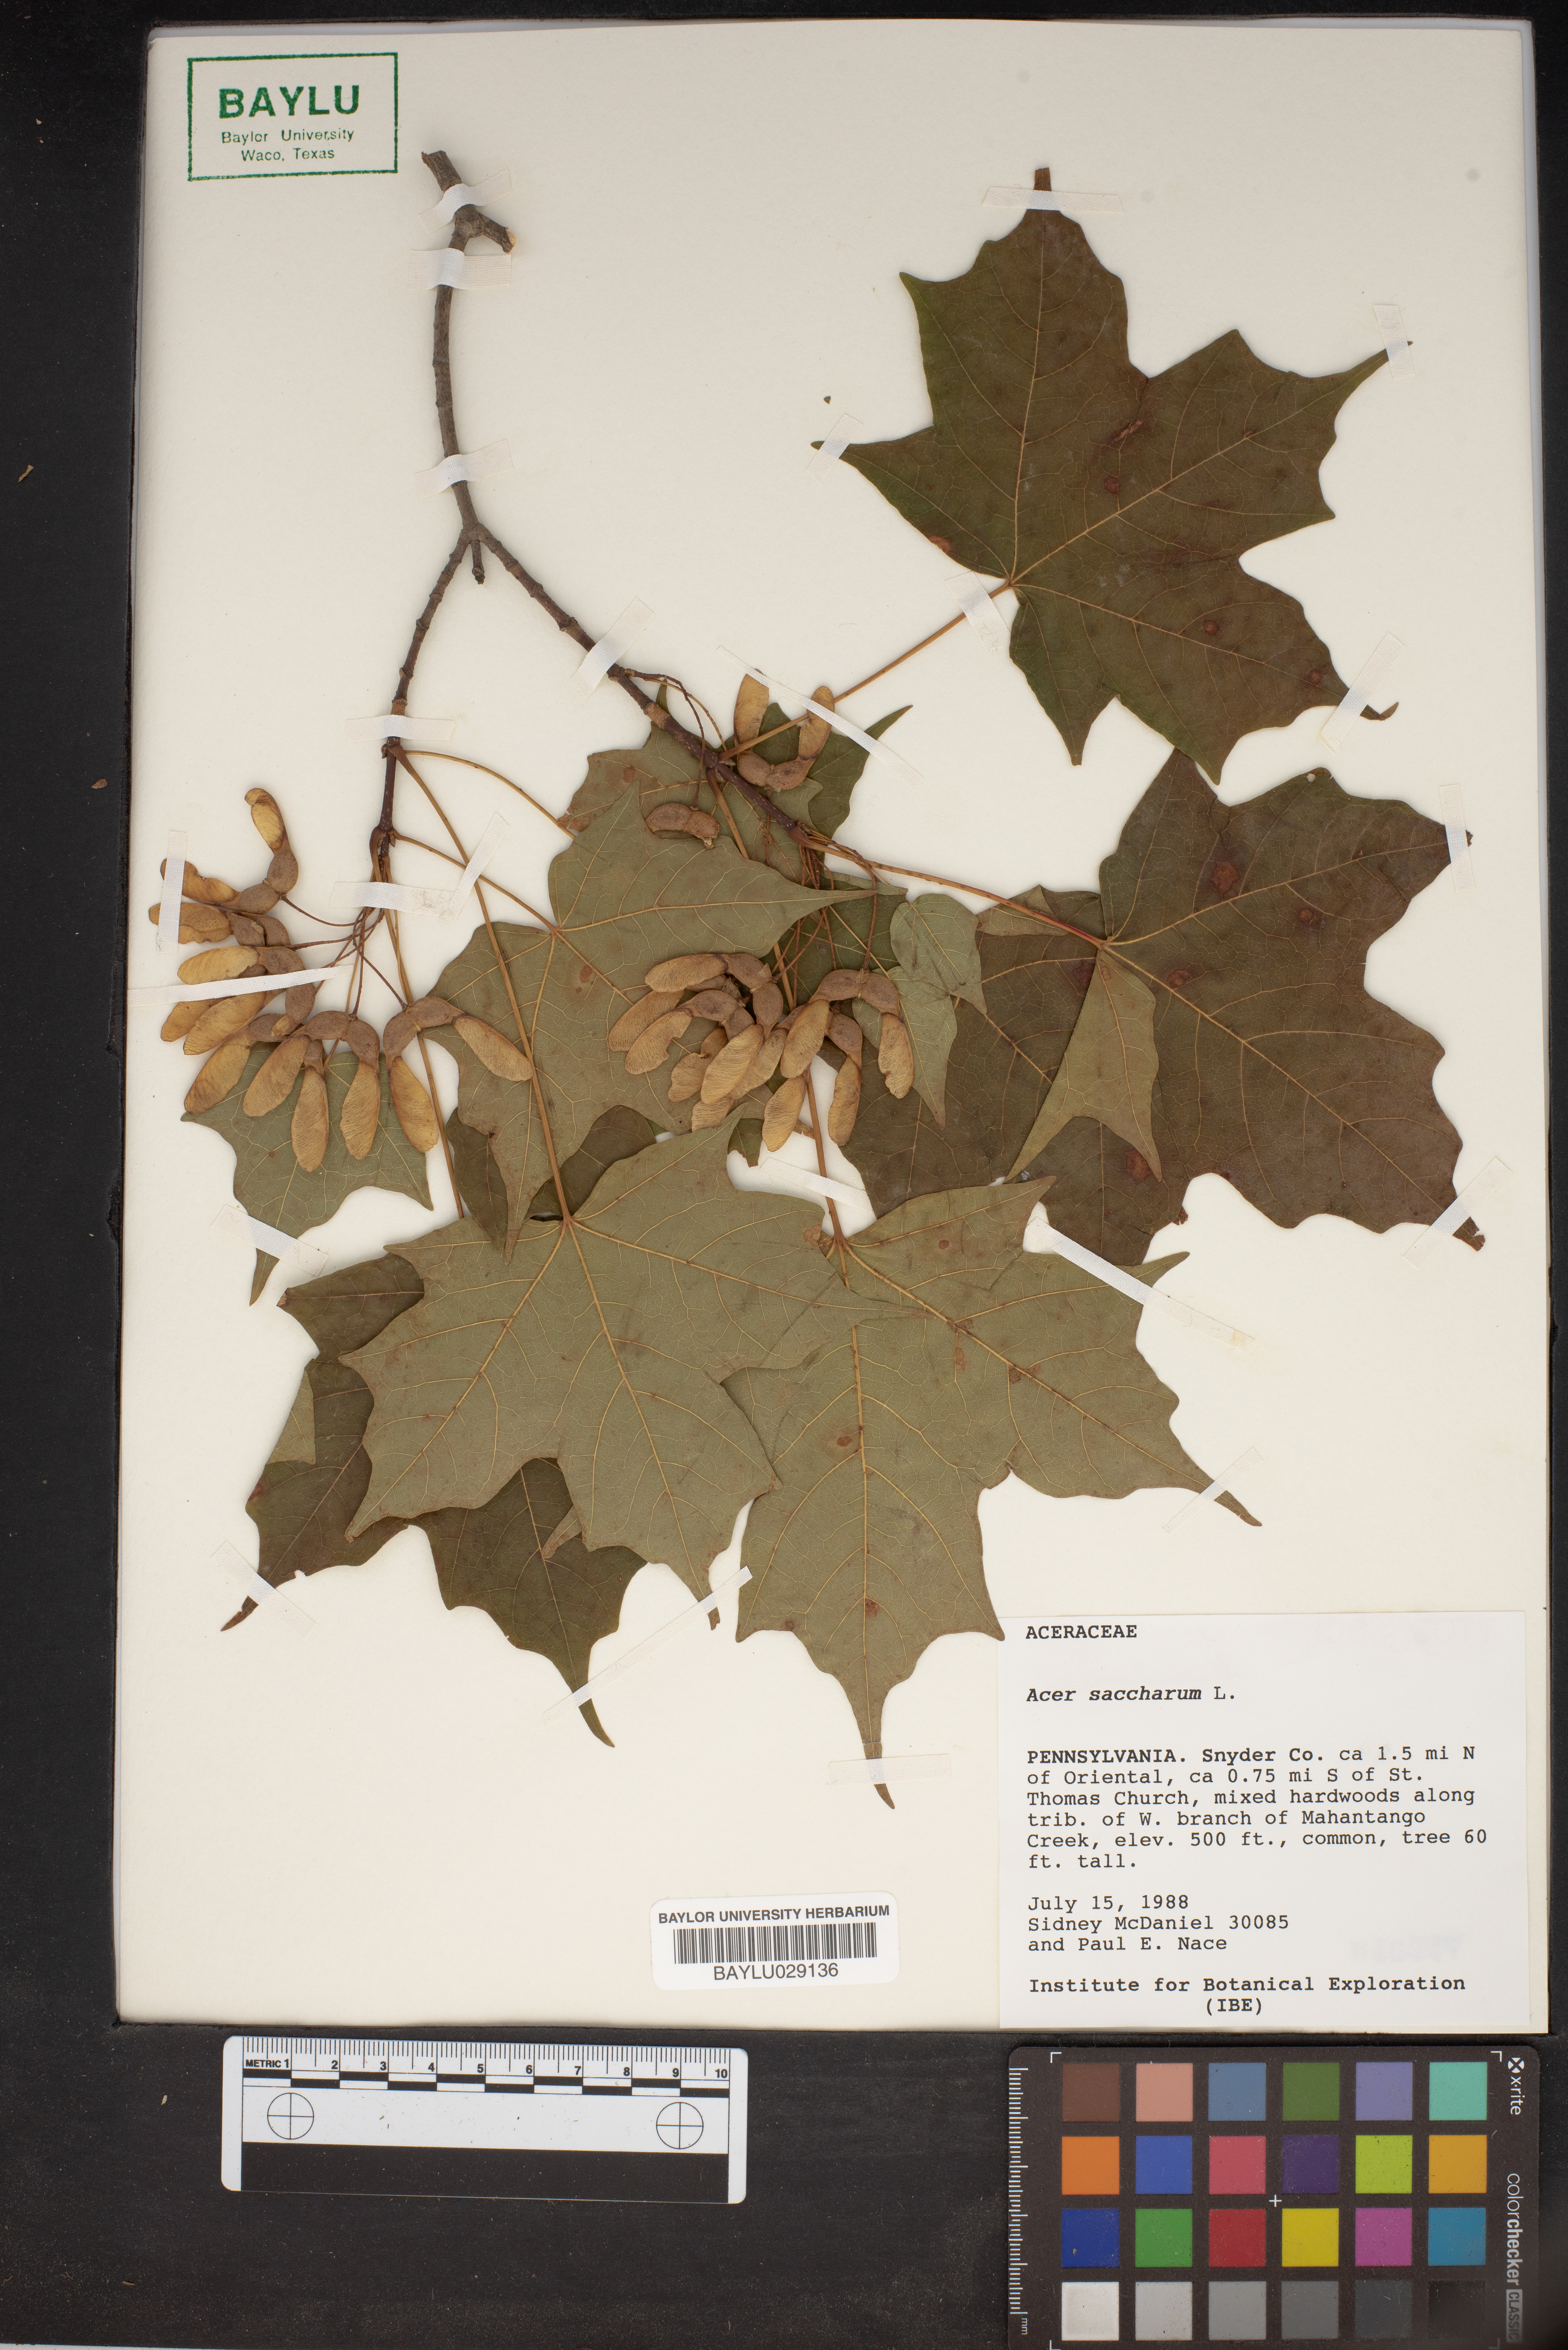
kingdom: Plantae
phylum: Tracheophyta
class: Magnoliopsida
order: Sapindales
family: Sapindaceae
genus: Acer
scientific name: Acer saccharum
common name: Sugar maple
